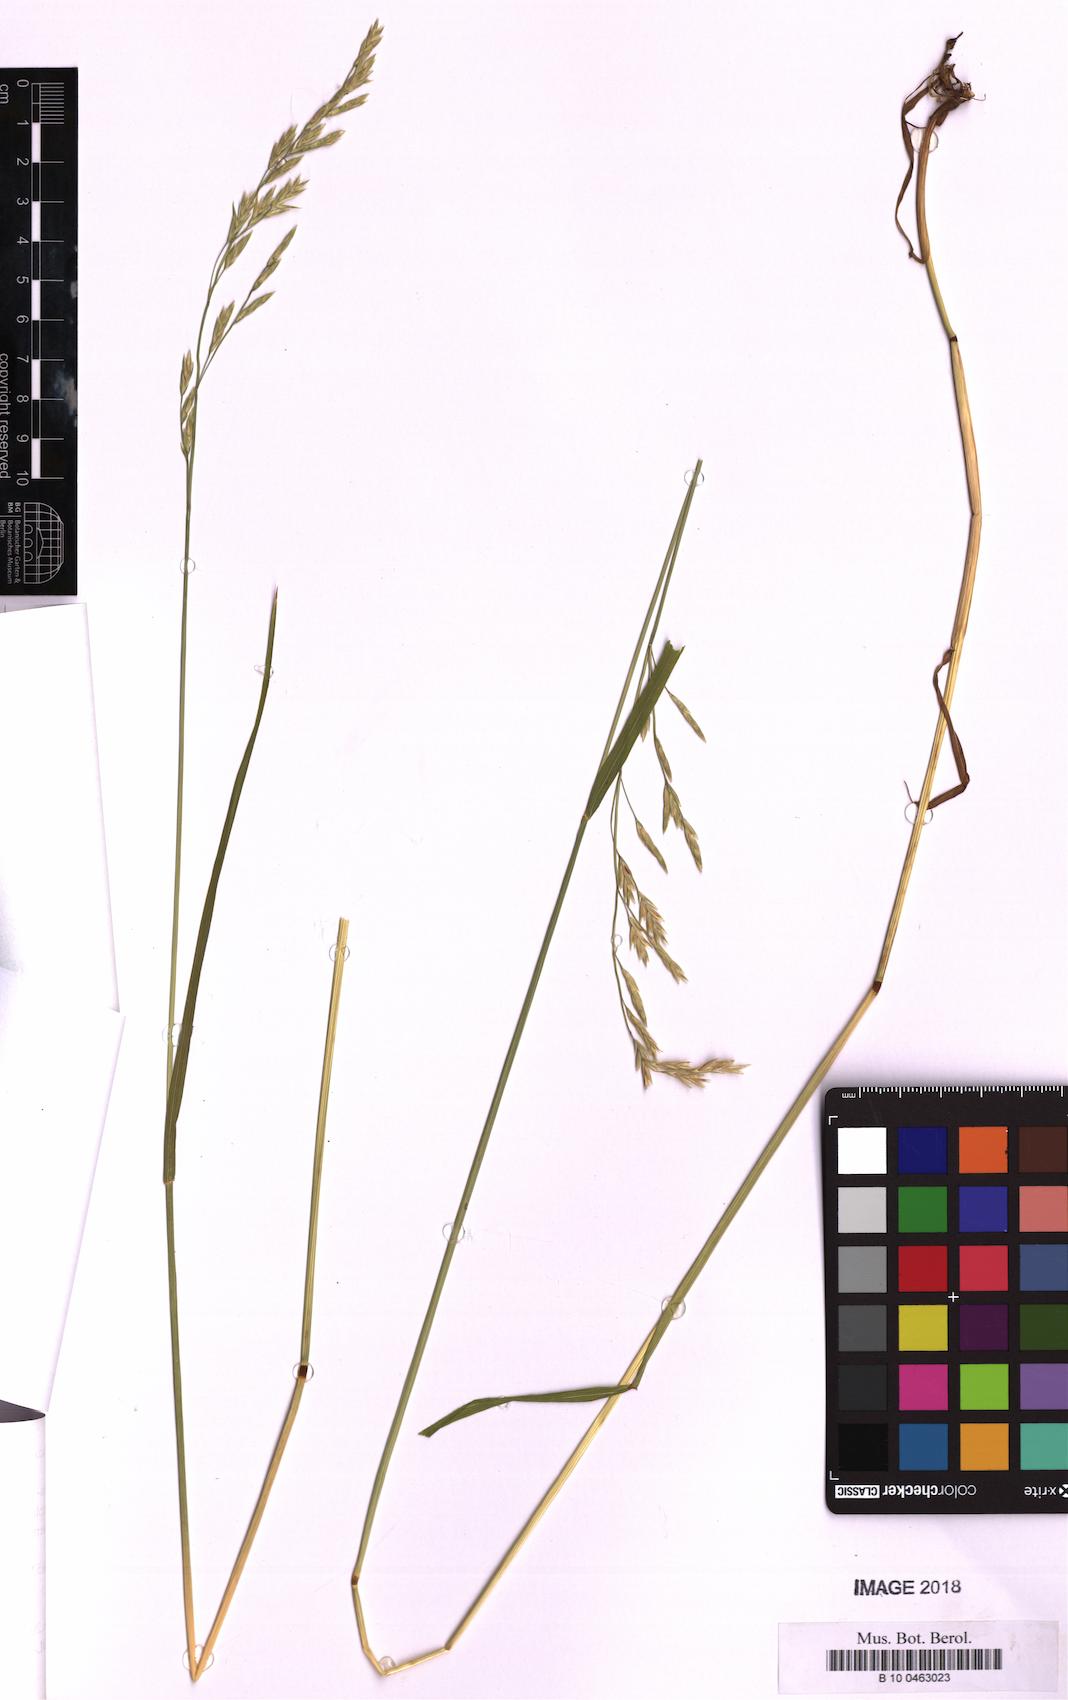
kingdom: Plantae
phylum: Tracheophyta
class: Liliopsida
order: Poales
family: Poaceae
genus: Lolium
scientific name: Lolium pratense
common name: Dover grass
